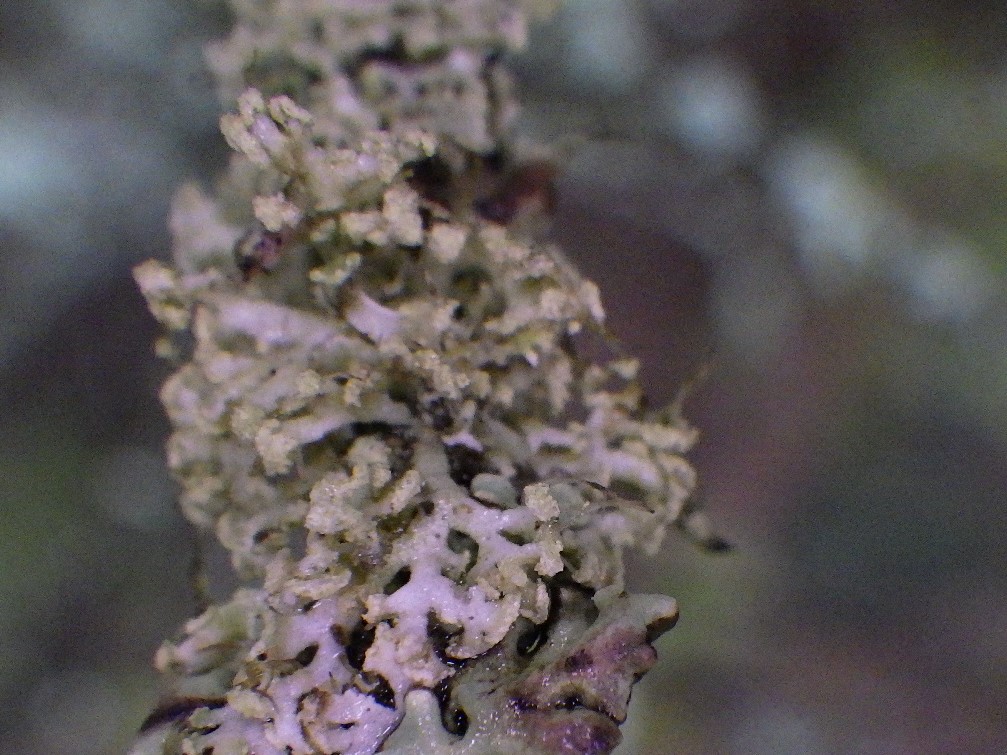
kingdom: Fungi
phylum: Ascomycota
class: Lecanoromycetes
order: Caliciales
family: Physciaceae
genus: Physcia
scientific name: Physcia tenella
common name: spæd rosetlav
